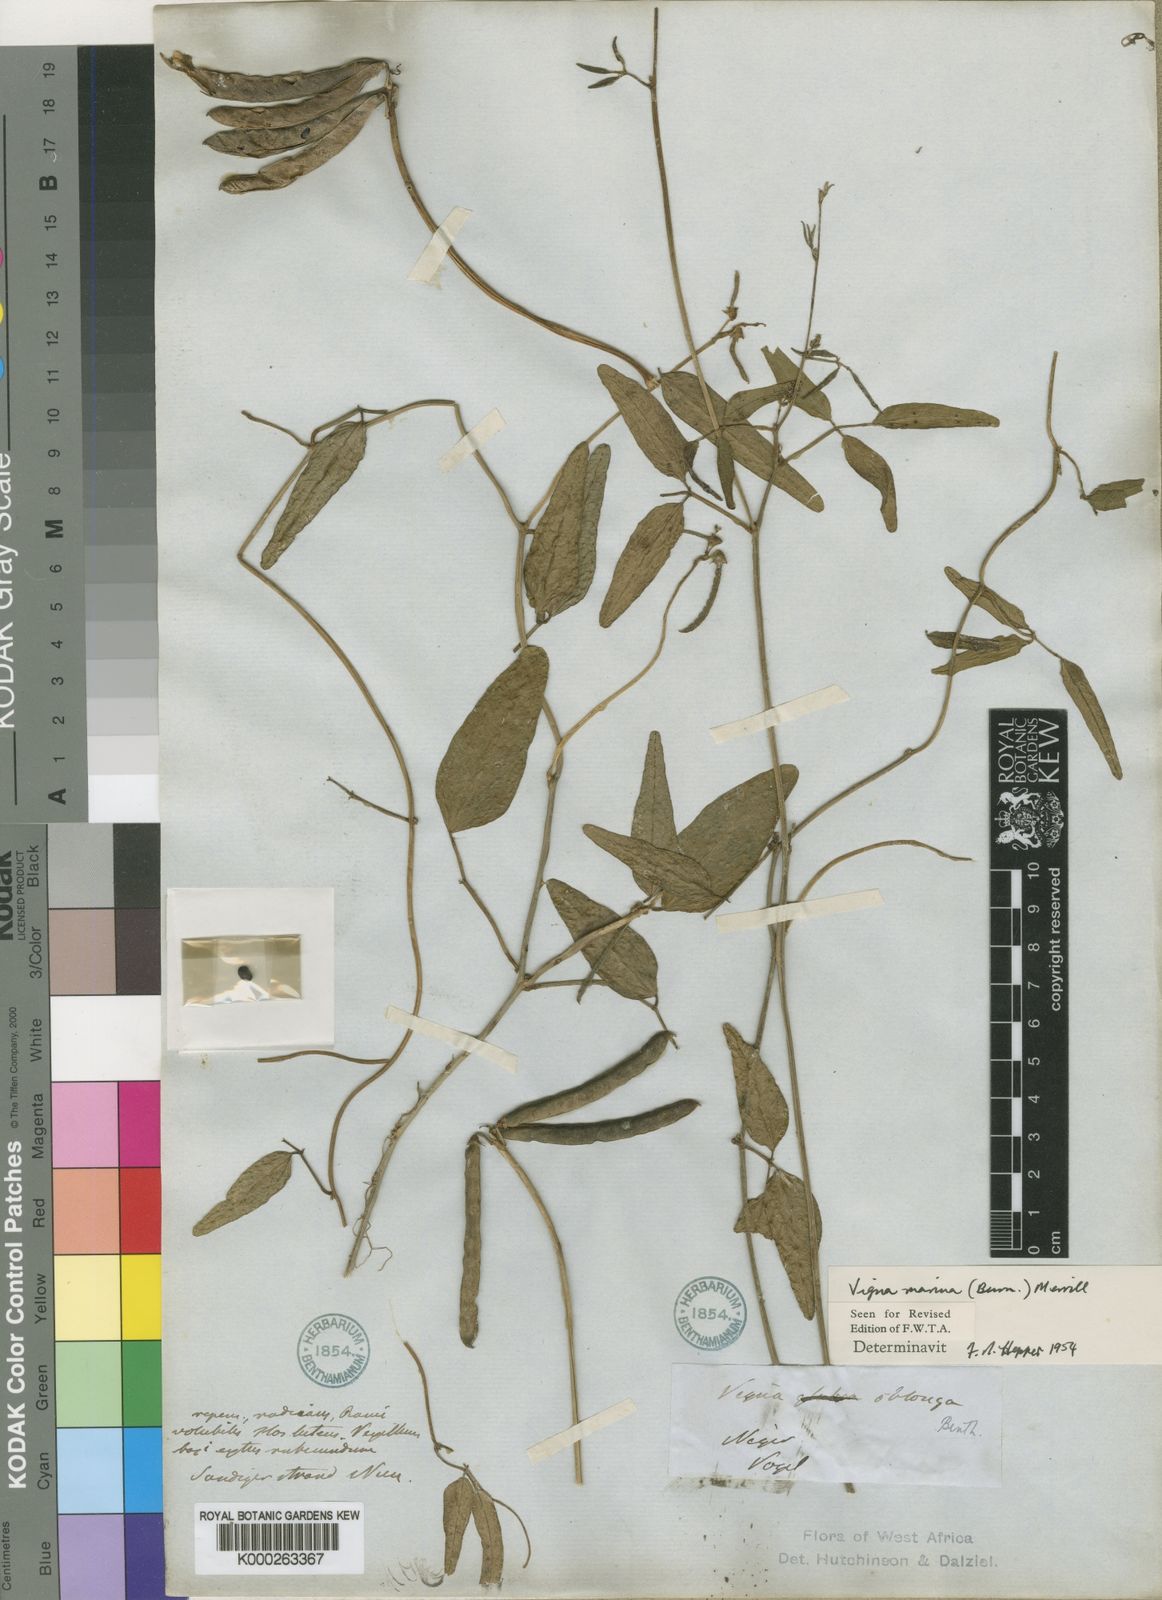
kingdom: Plantae
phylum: Tracheophyta
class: Magnoliopsida
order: Fabales
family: Fabaceae
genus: Vigna
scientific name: Vigna marina
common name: Dune-bean
